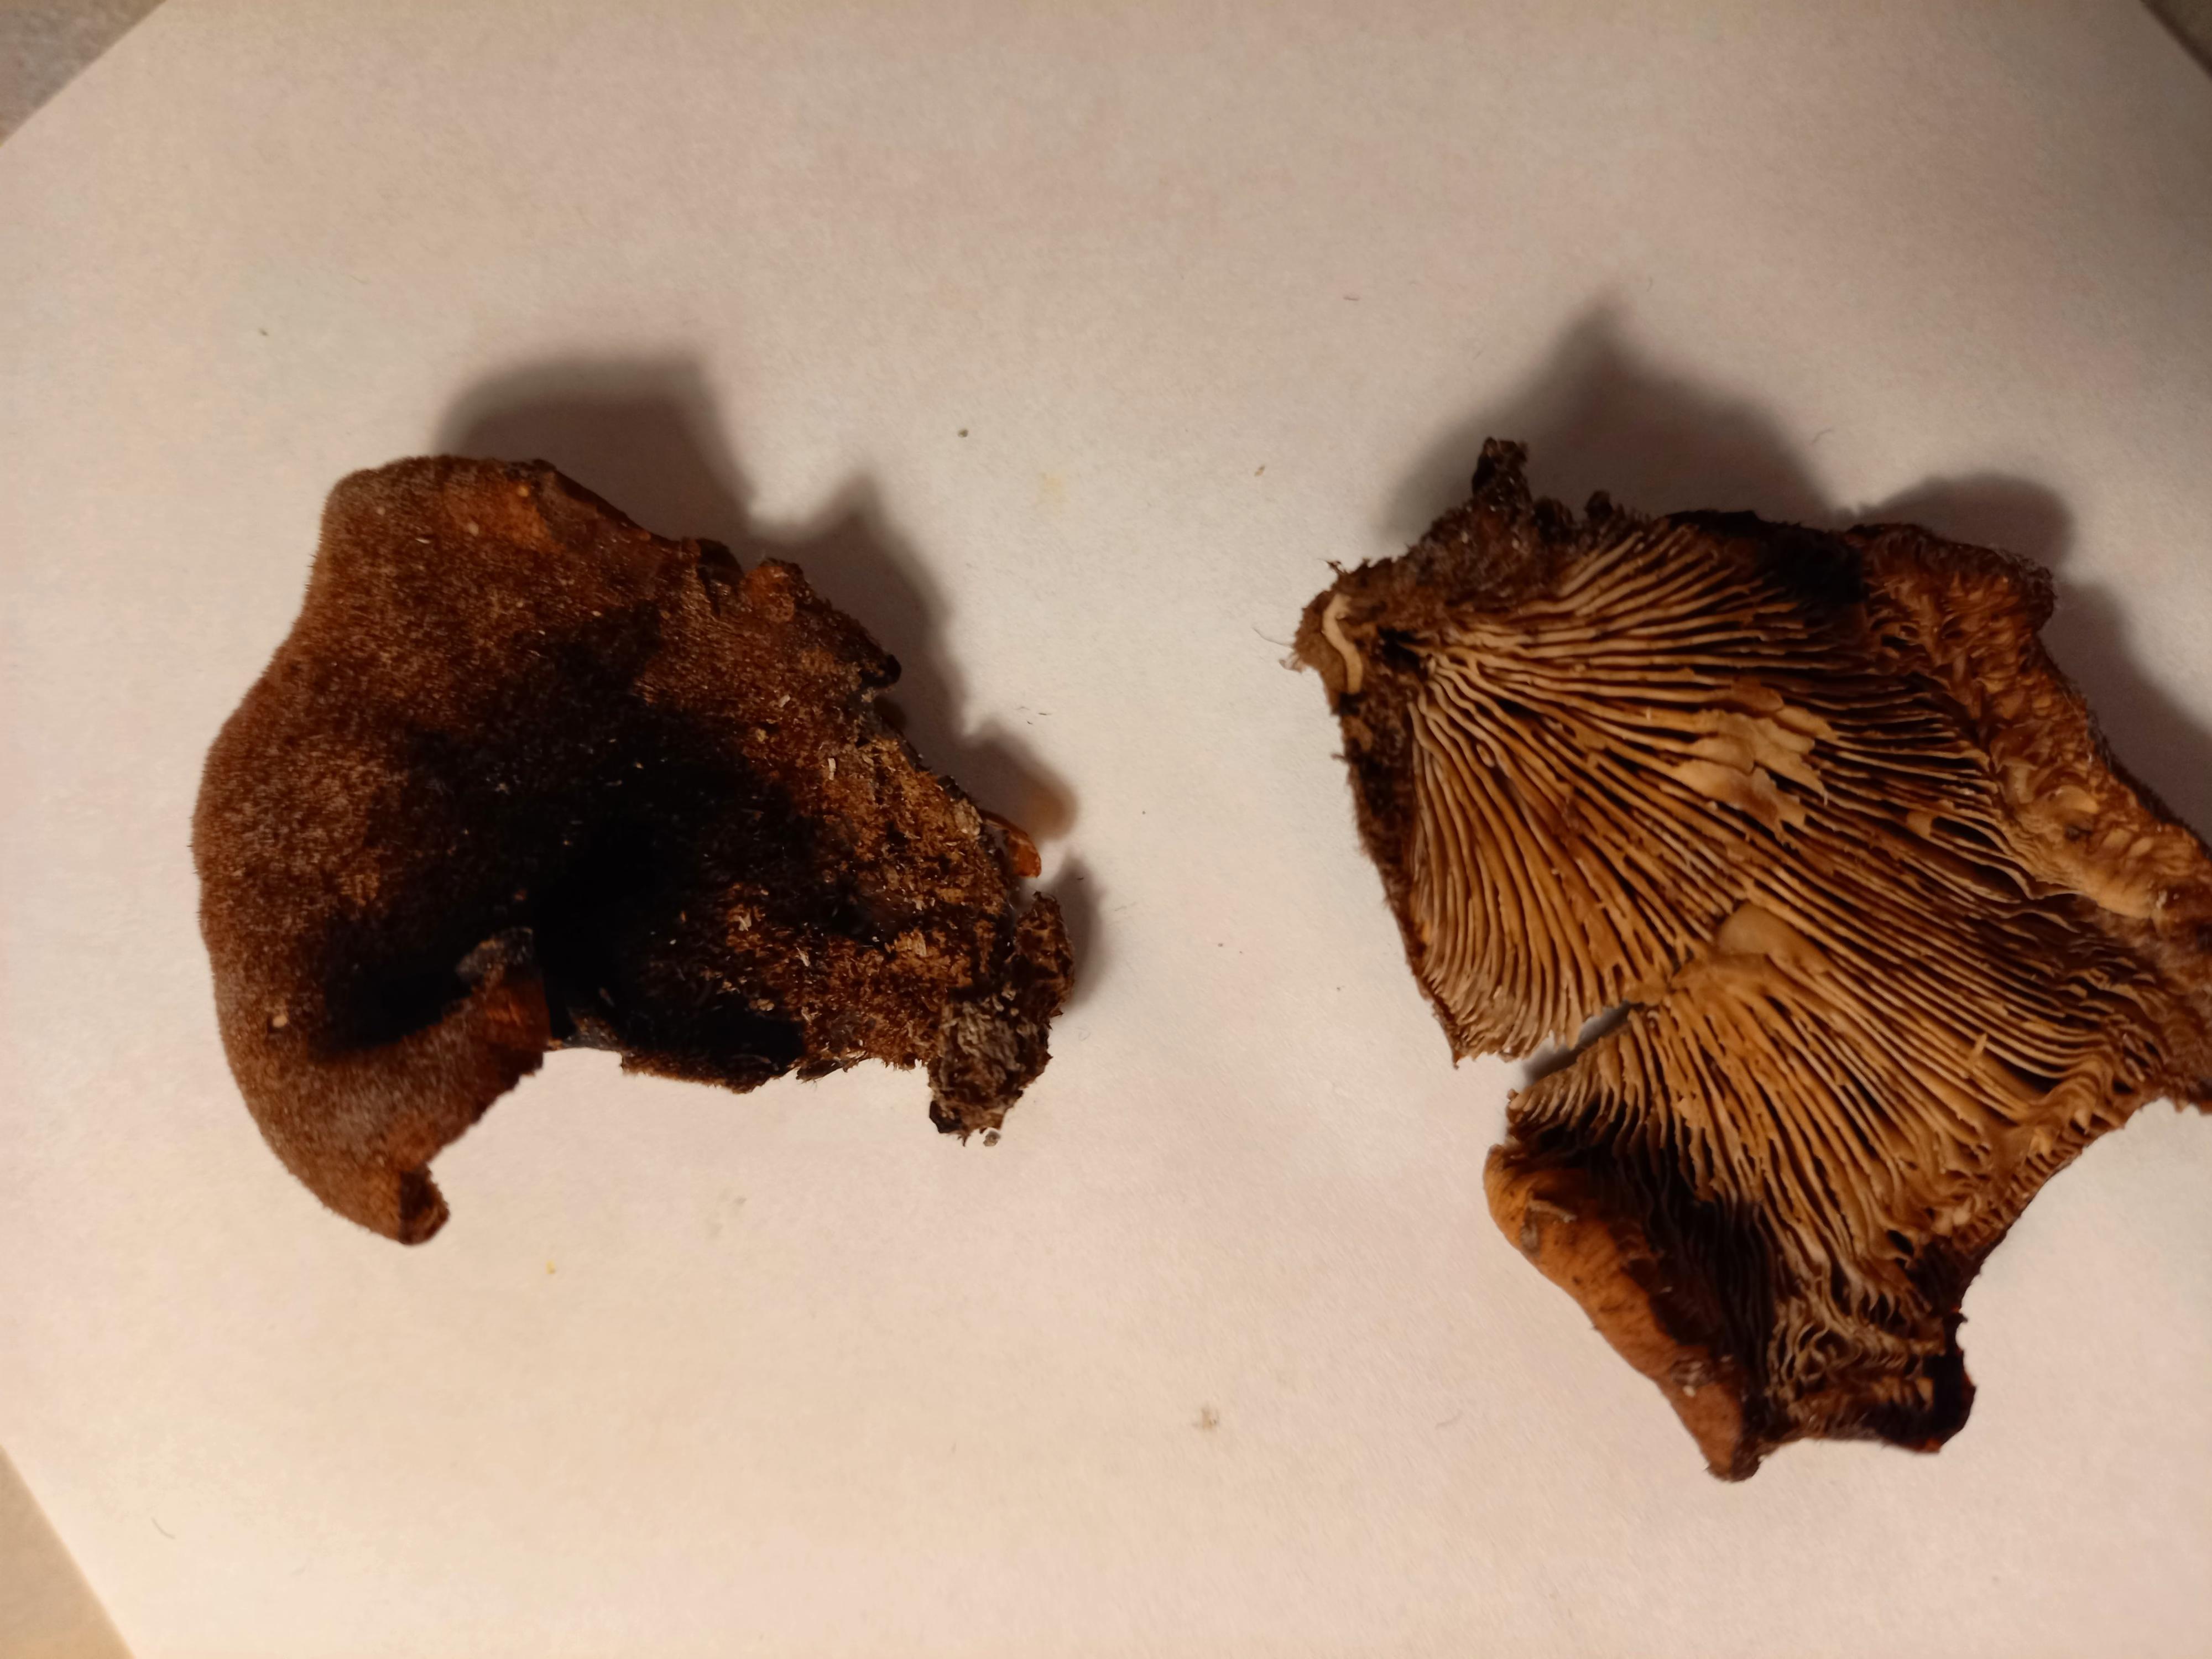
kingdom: Fungi
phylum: Basidiomycota
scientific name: Basidiomycota
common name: basidiesvampe
